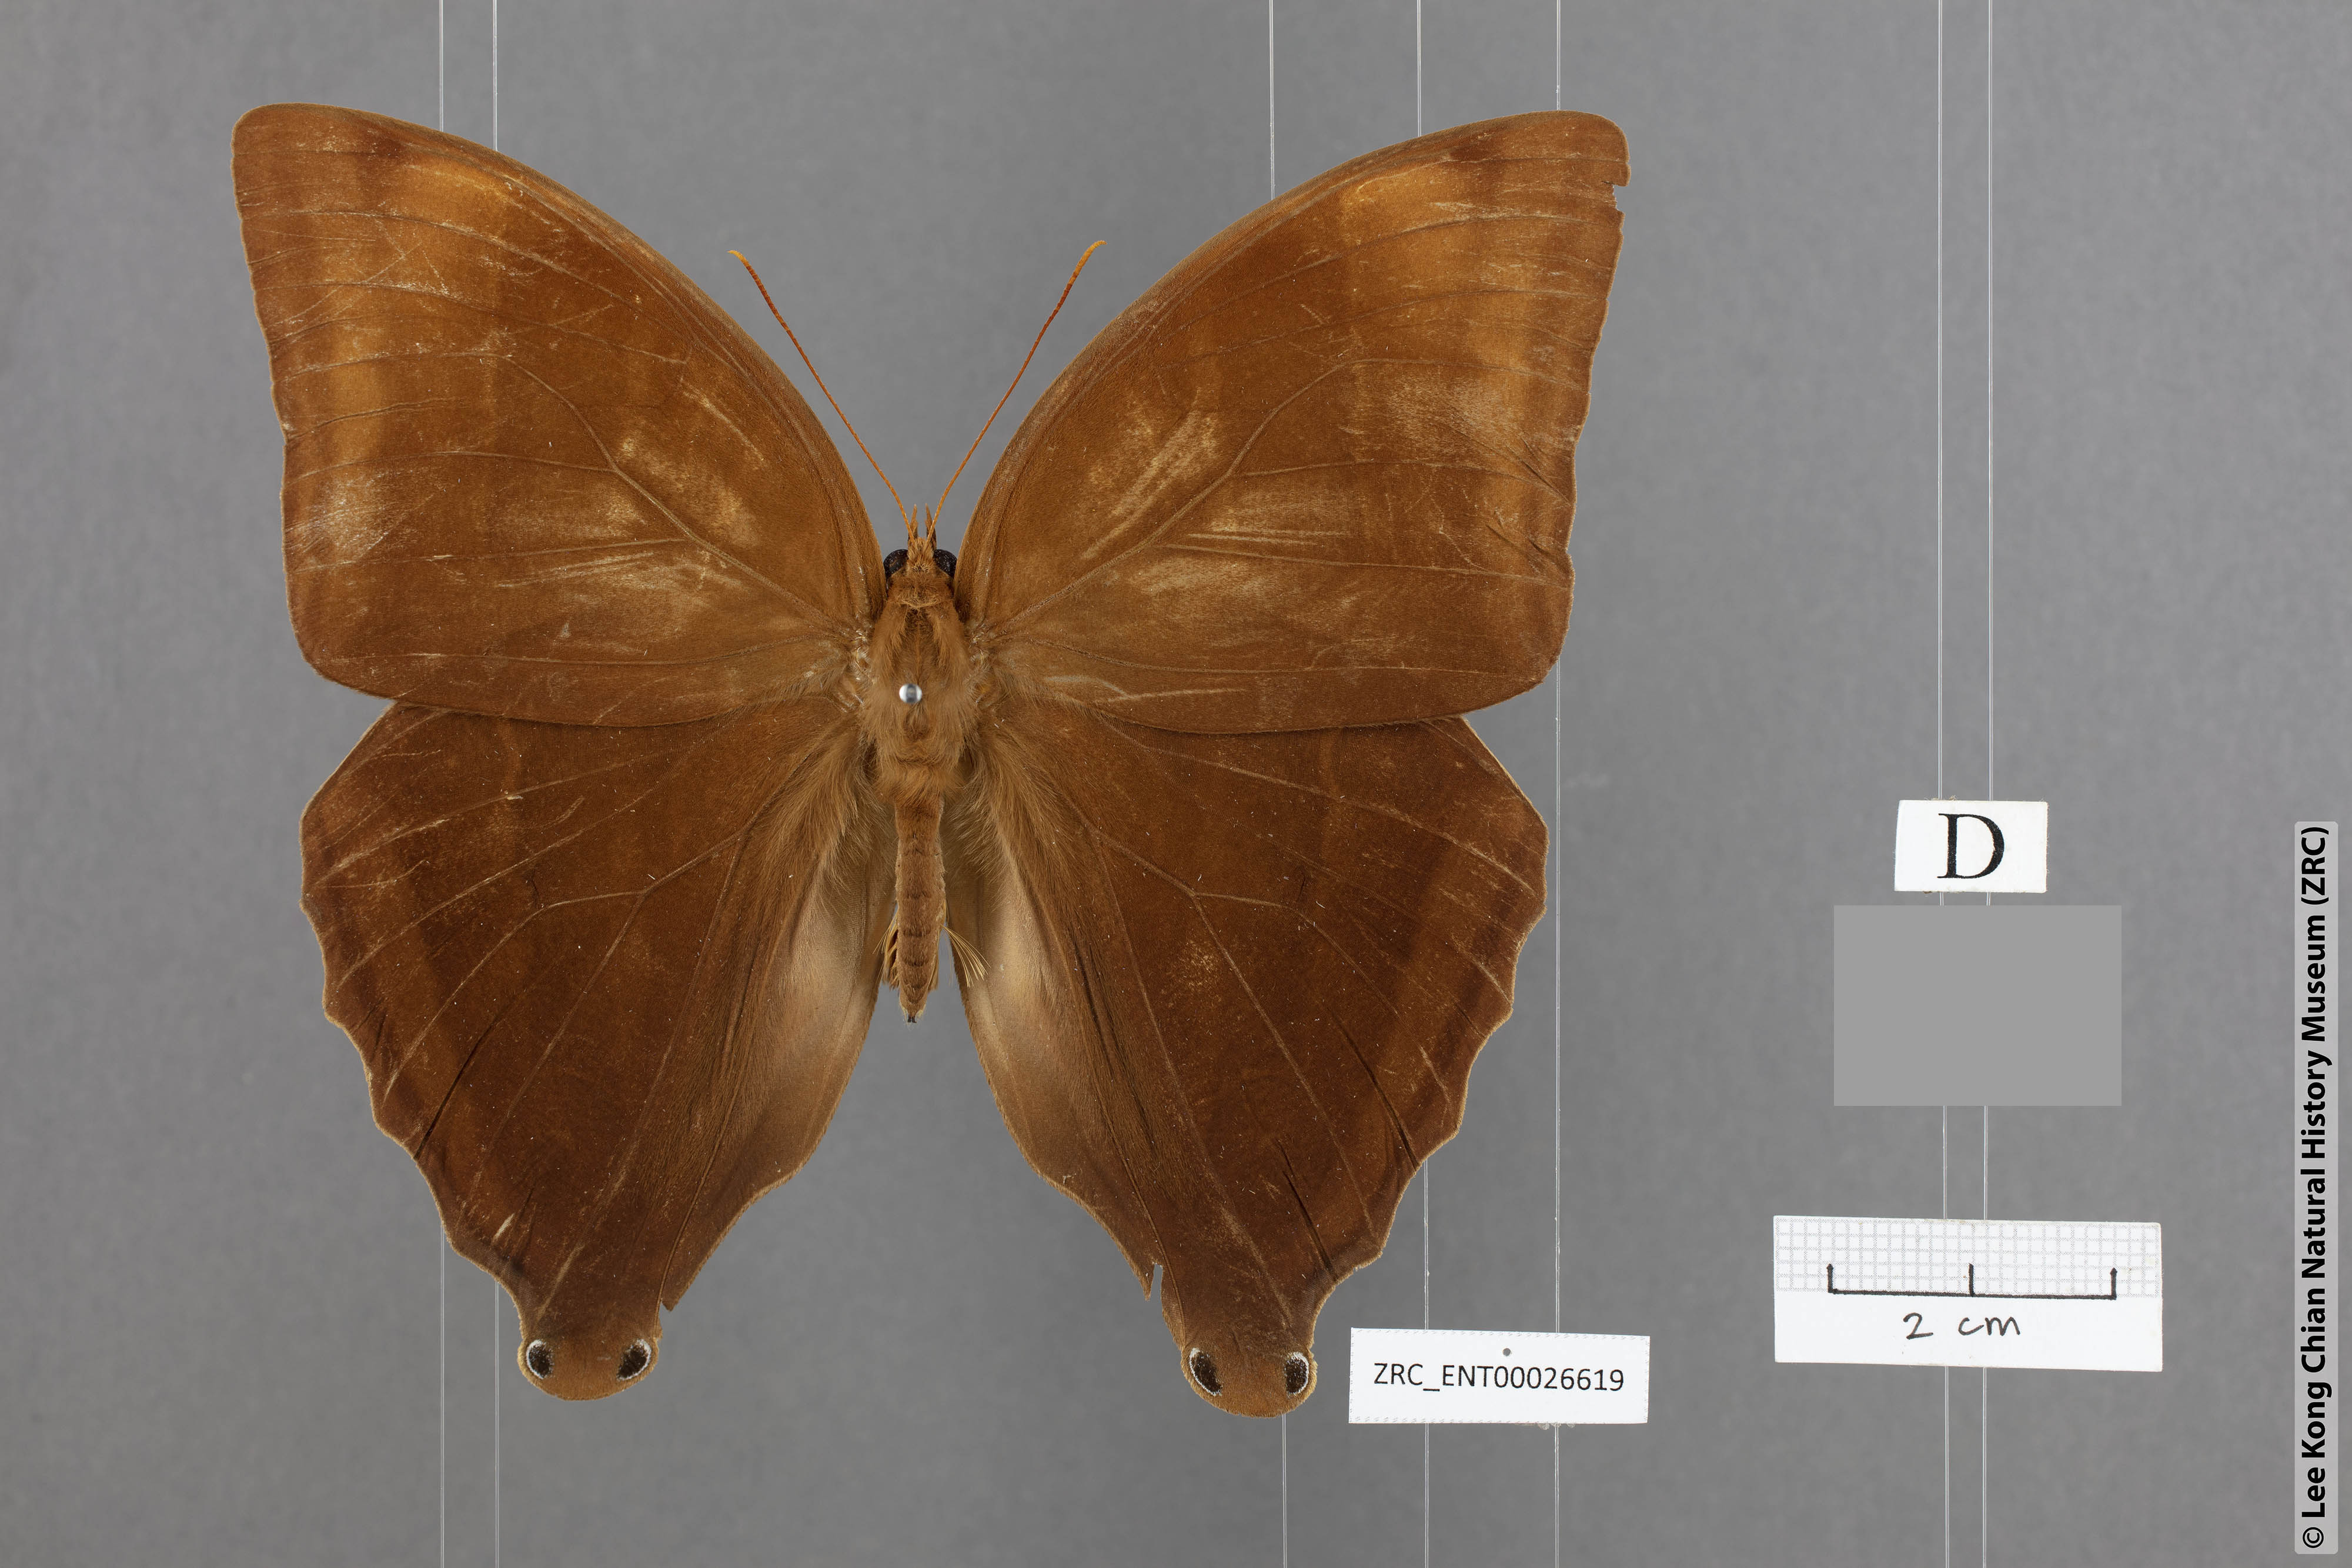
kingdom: Animalia
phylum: Arthropoda
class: Insecta
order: Lepidoptera
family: Nymphalidae
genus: Amathusia
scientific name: Amathusia perakana
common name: Perak palm king
